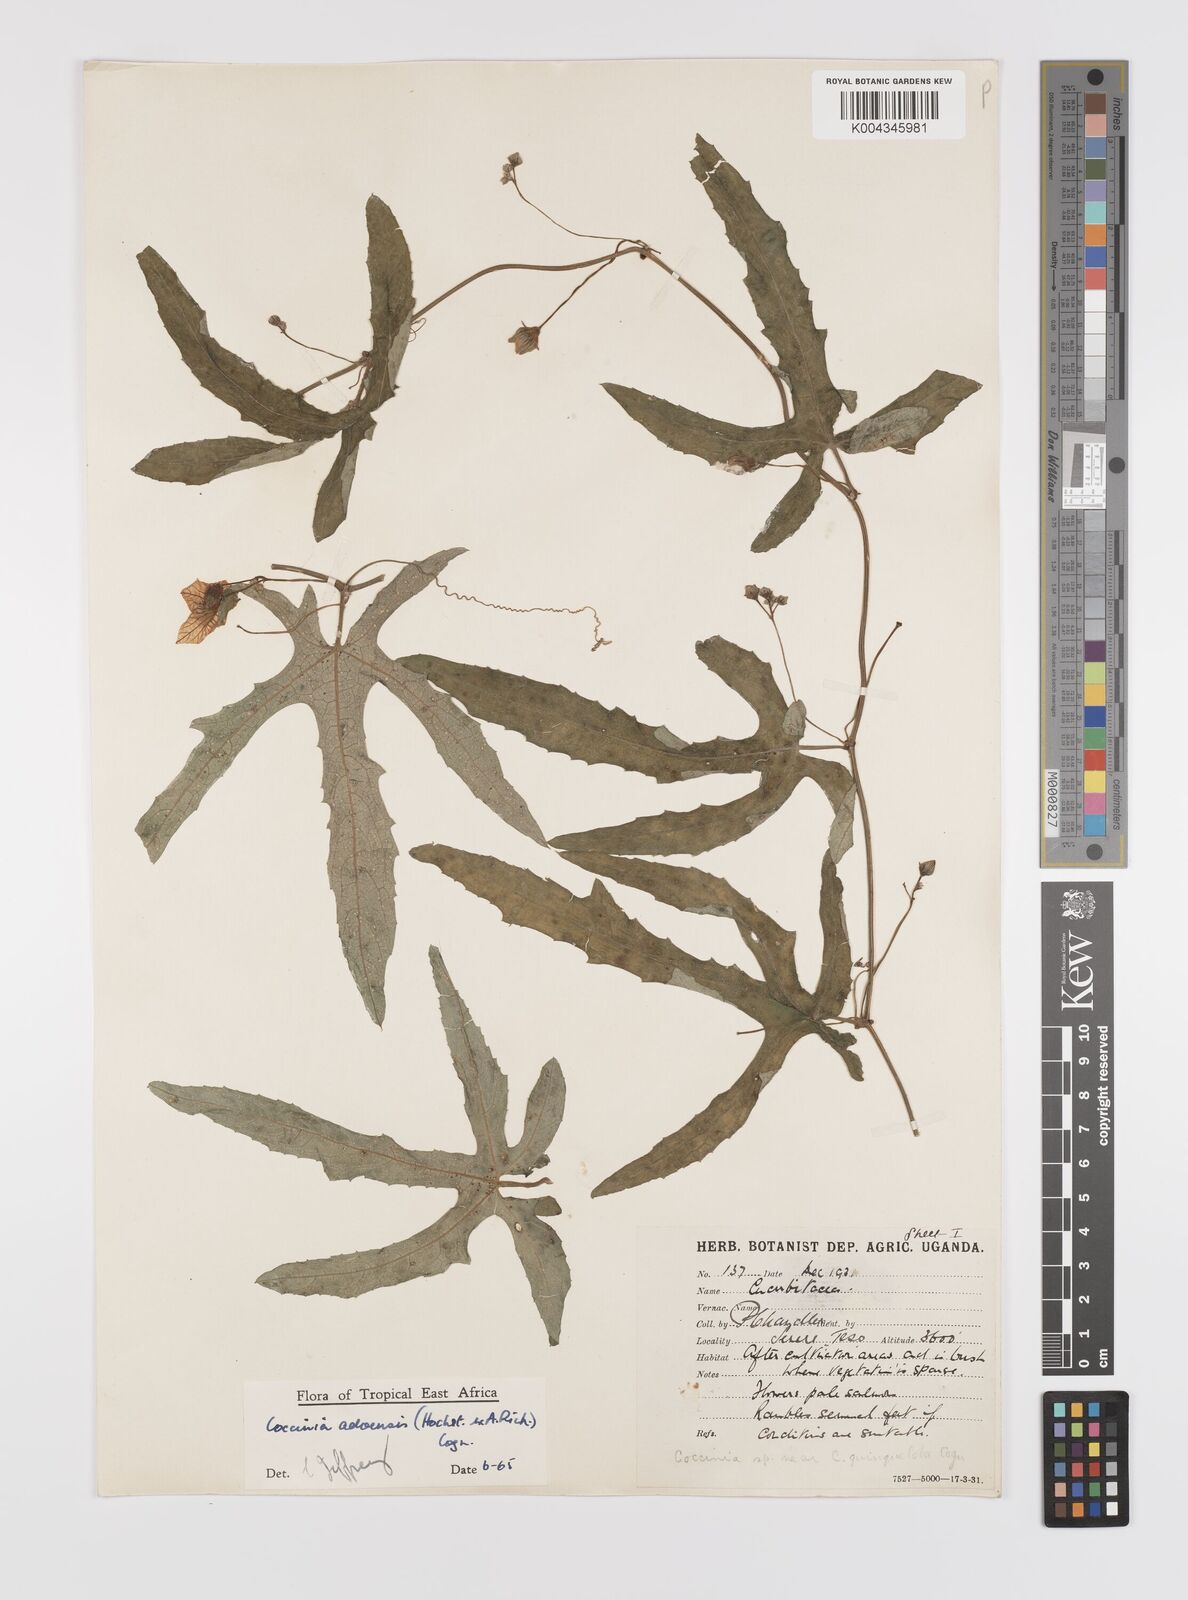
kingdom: Plantae
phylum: Tracheophyta
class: Magnoliopsida
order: Cucurbitales
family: Cucurbitaceae
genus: Coccinia
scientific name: Coccinia adoensis
